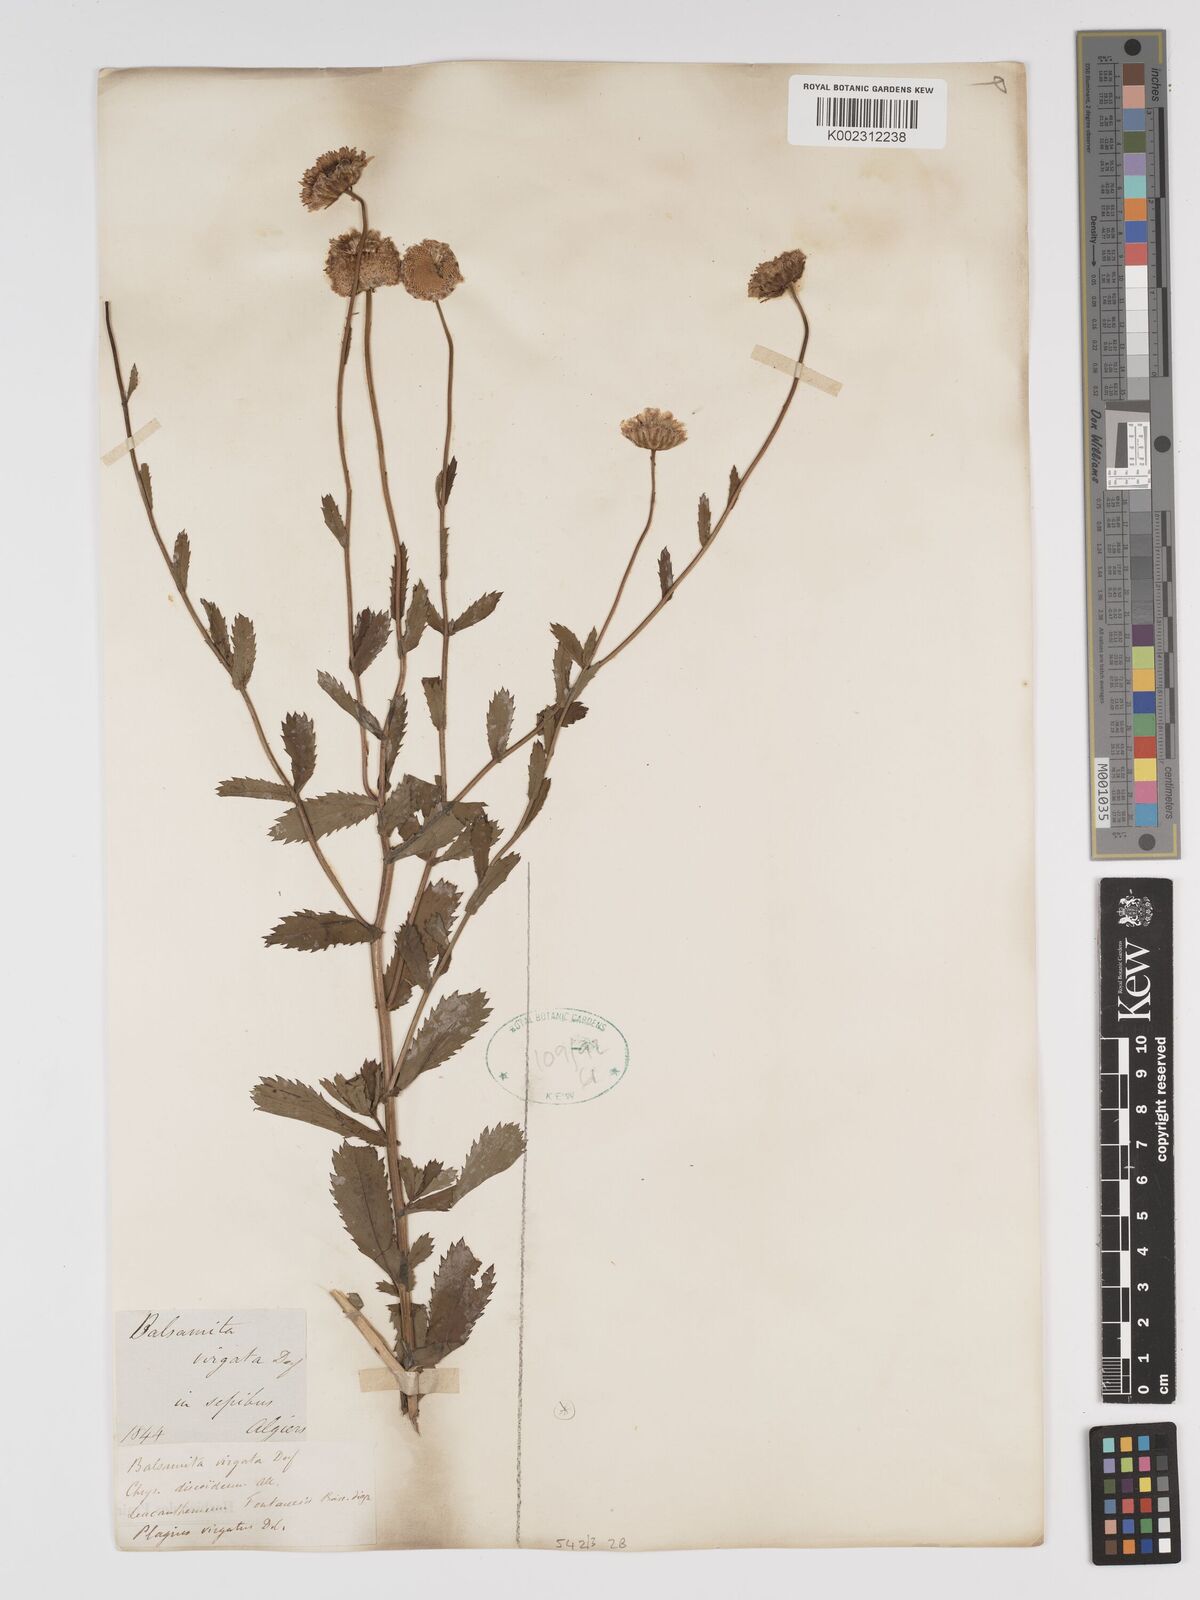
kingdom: Plantae
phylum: Tracheophyta
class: Magnoliopsida
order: Asterales
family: Asteraceae
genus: Tanacetum
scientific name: Tanacetum vulgare
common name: Common tansy
